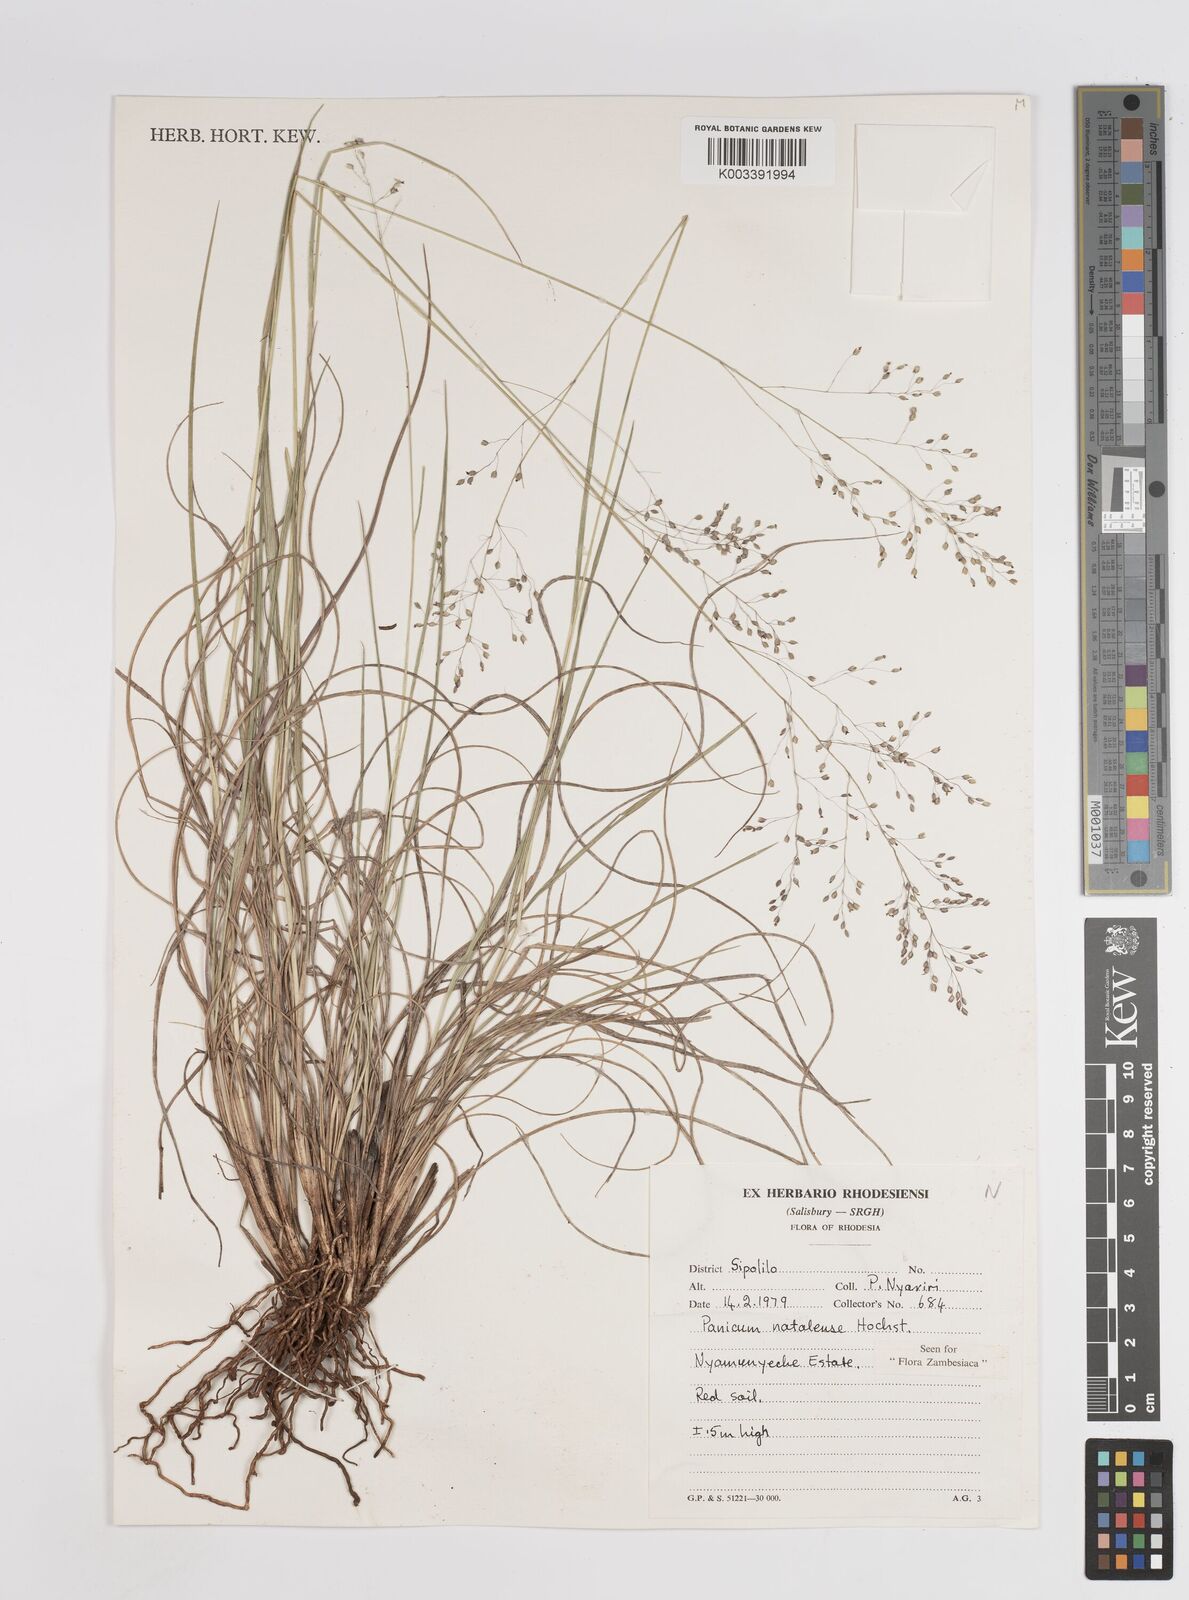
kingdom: Plantae
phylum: Tracheophyta
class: Liliopsida
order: Poales
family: Poaceae
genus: Trichanthecium
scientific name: Trichanthecium natalense
